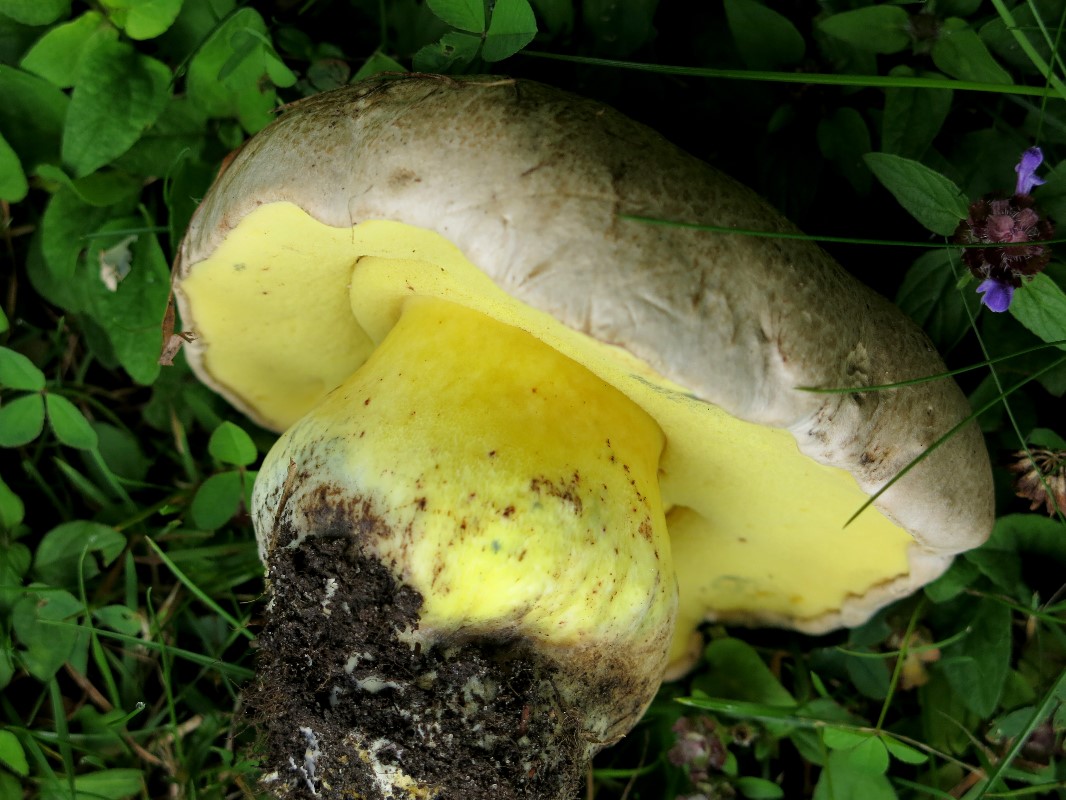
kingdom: Fungi
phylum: Basidiomycota
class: Agaricomycetes
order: Boletales
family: Boletaceae
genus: Caloboletus
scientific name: Caloboletus radicans
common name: rod-rørhat
